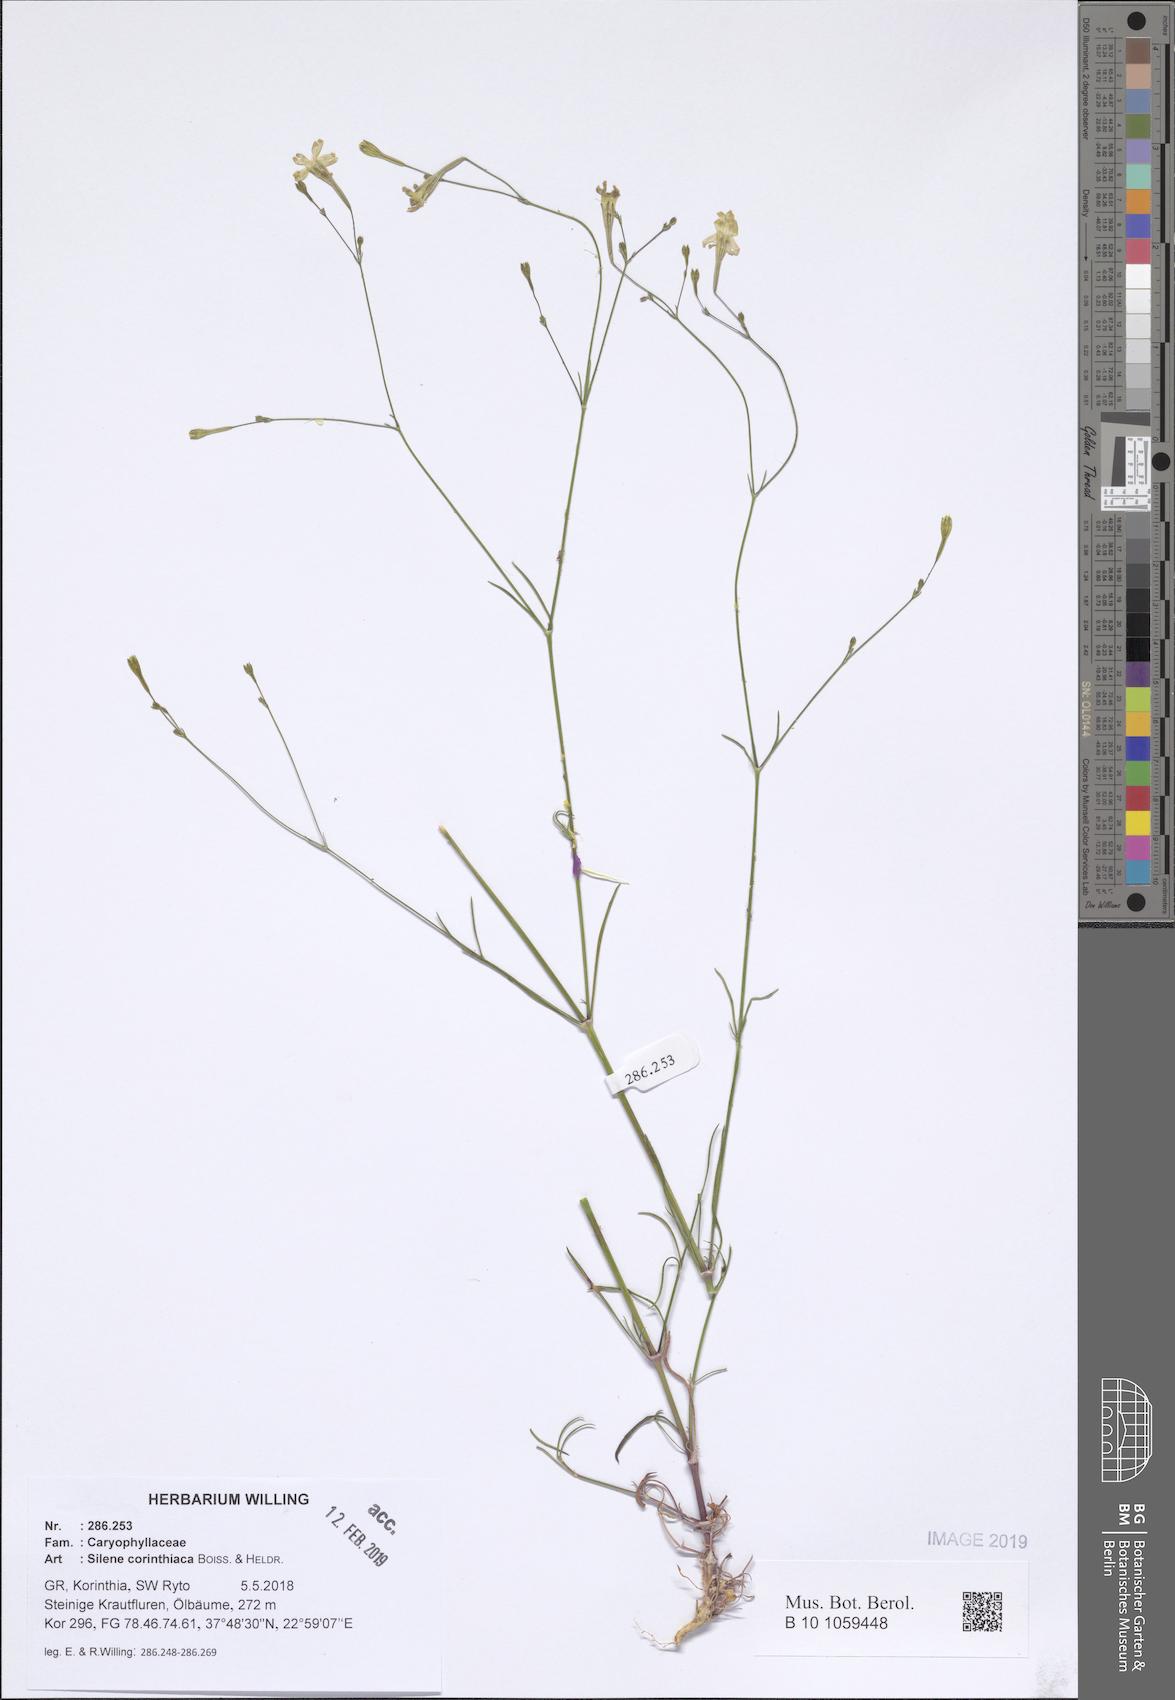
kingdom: Plantae
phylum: Tracheophyta
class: Magnoliopsida
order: Caryophyllales
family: Caryophyllaceae
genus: Silene
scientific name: Silene corinthiaca
